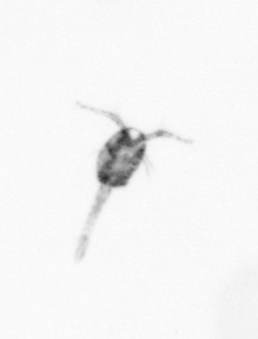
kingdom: Animalia
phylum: Arthropoda
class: Copepoda
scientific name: Copepoda
